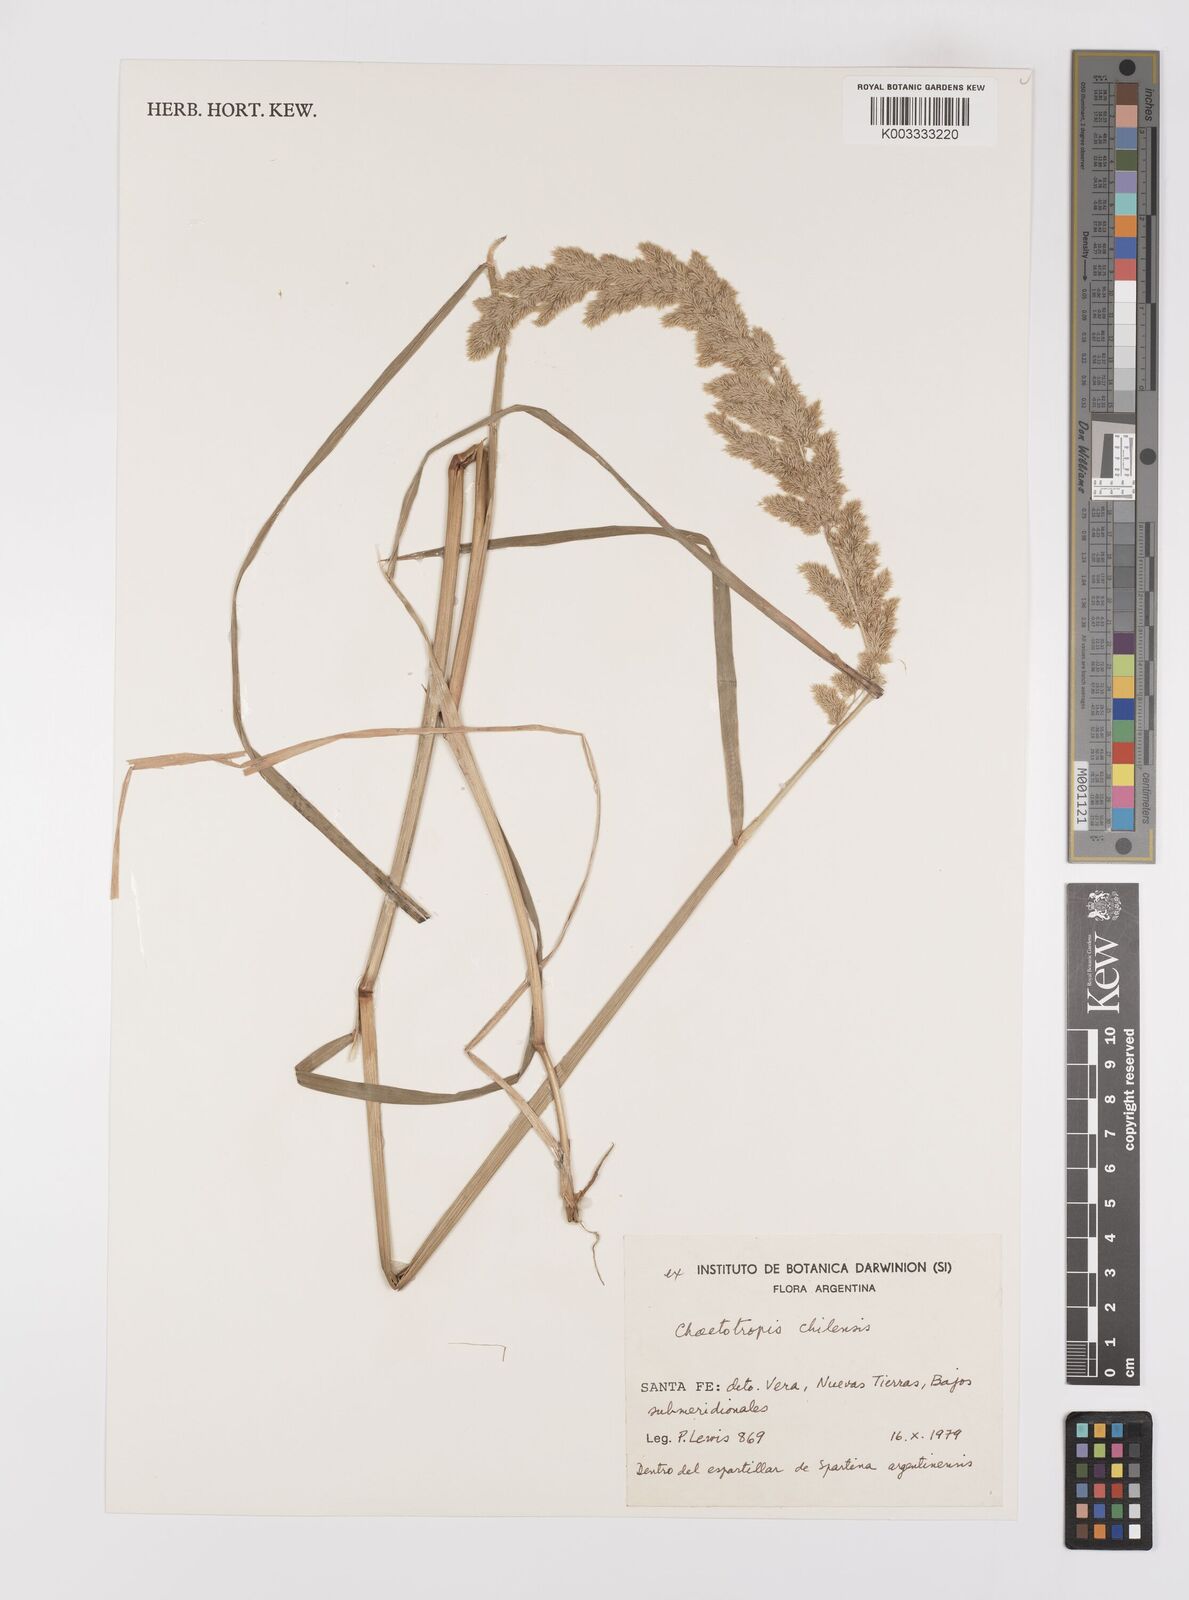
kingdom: Plantae
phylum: Tracheophyta
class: Liliopsida
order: Poales
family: Poaceae
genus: Polypogon
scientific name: Polypogon chilensis
